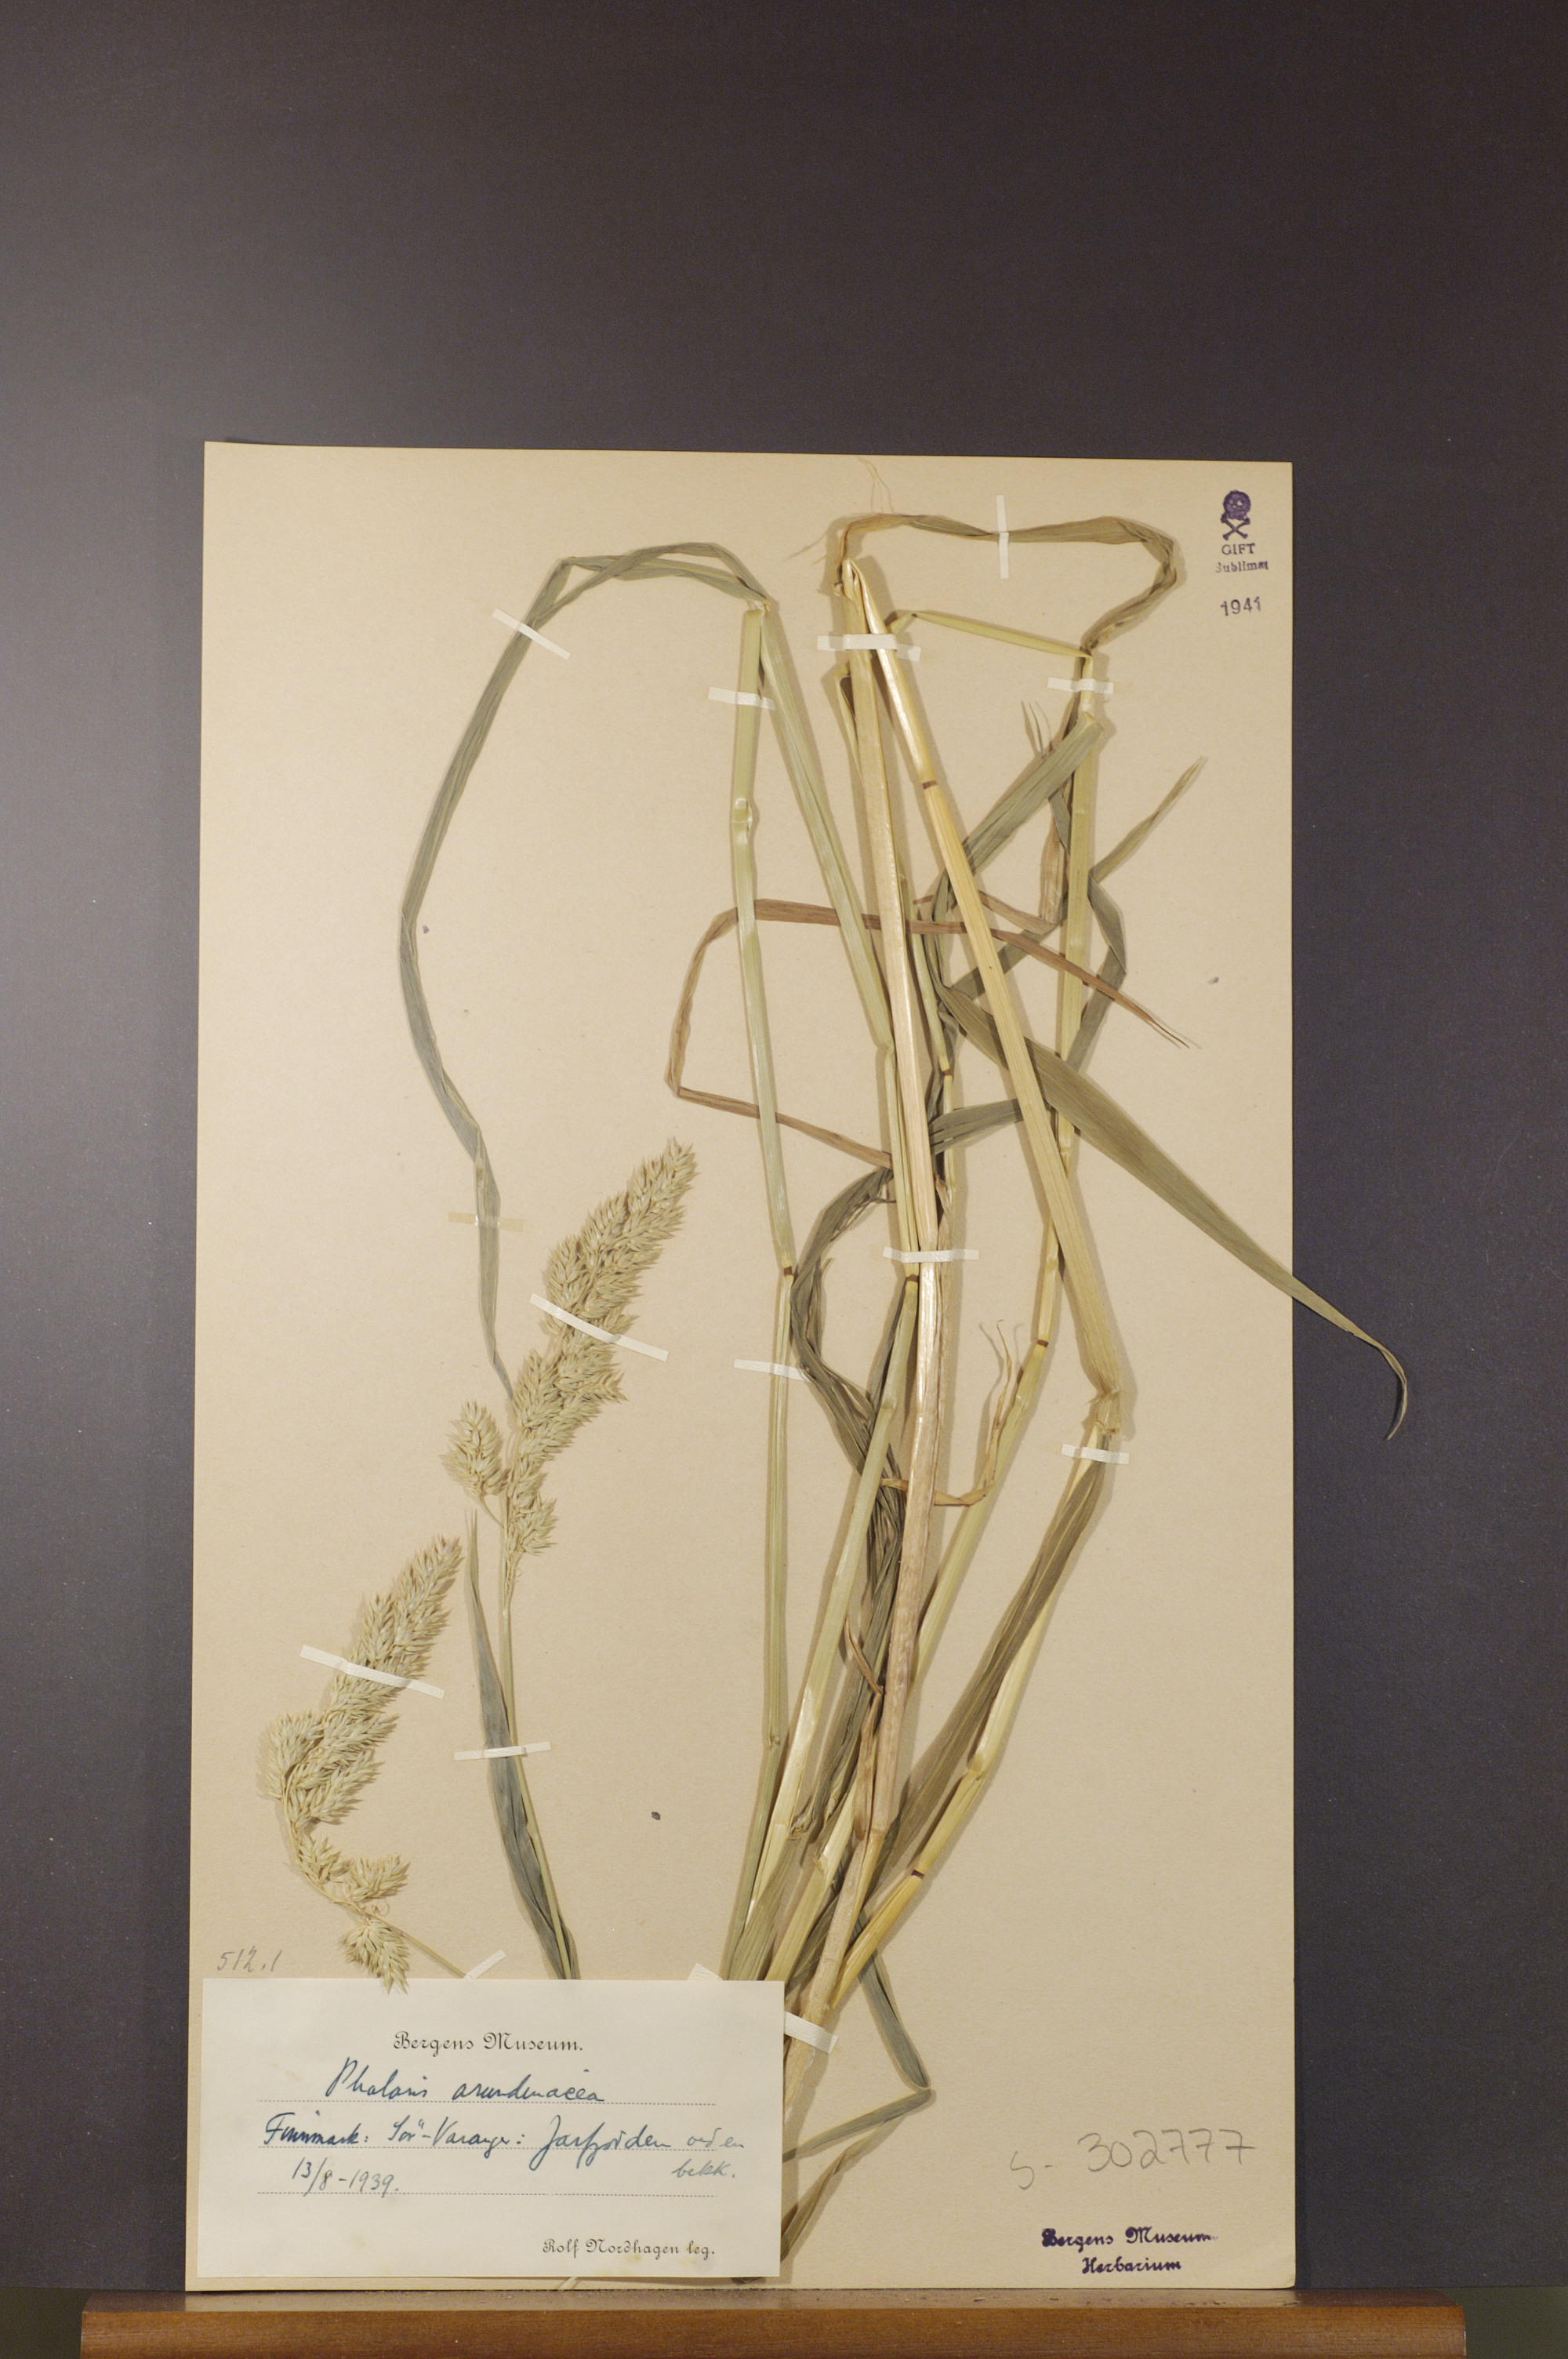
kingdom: Plantae
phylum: Tracheophyta
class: Liliopsida
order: Poales
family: Poaceae
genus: Phalaris
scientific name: Phalaris arundinacea
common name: Reed canary-grass
